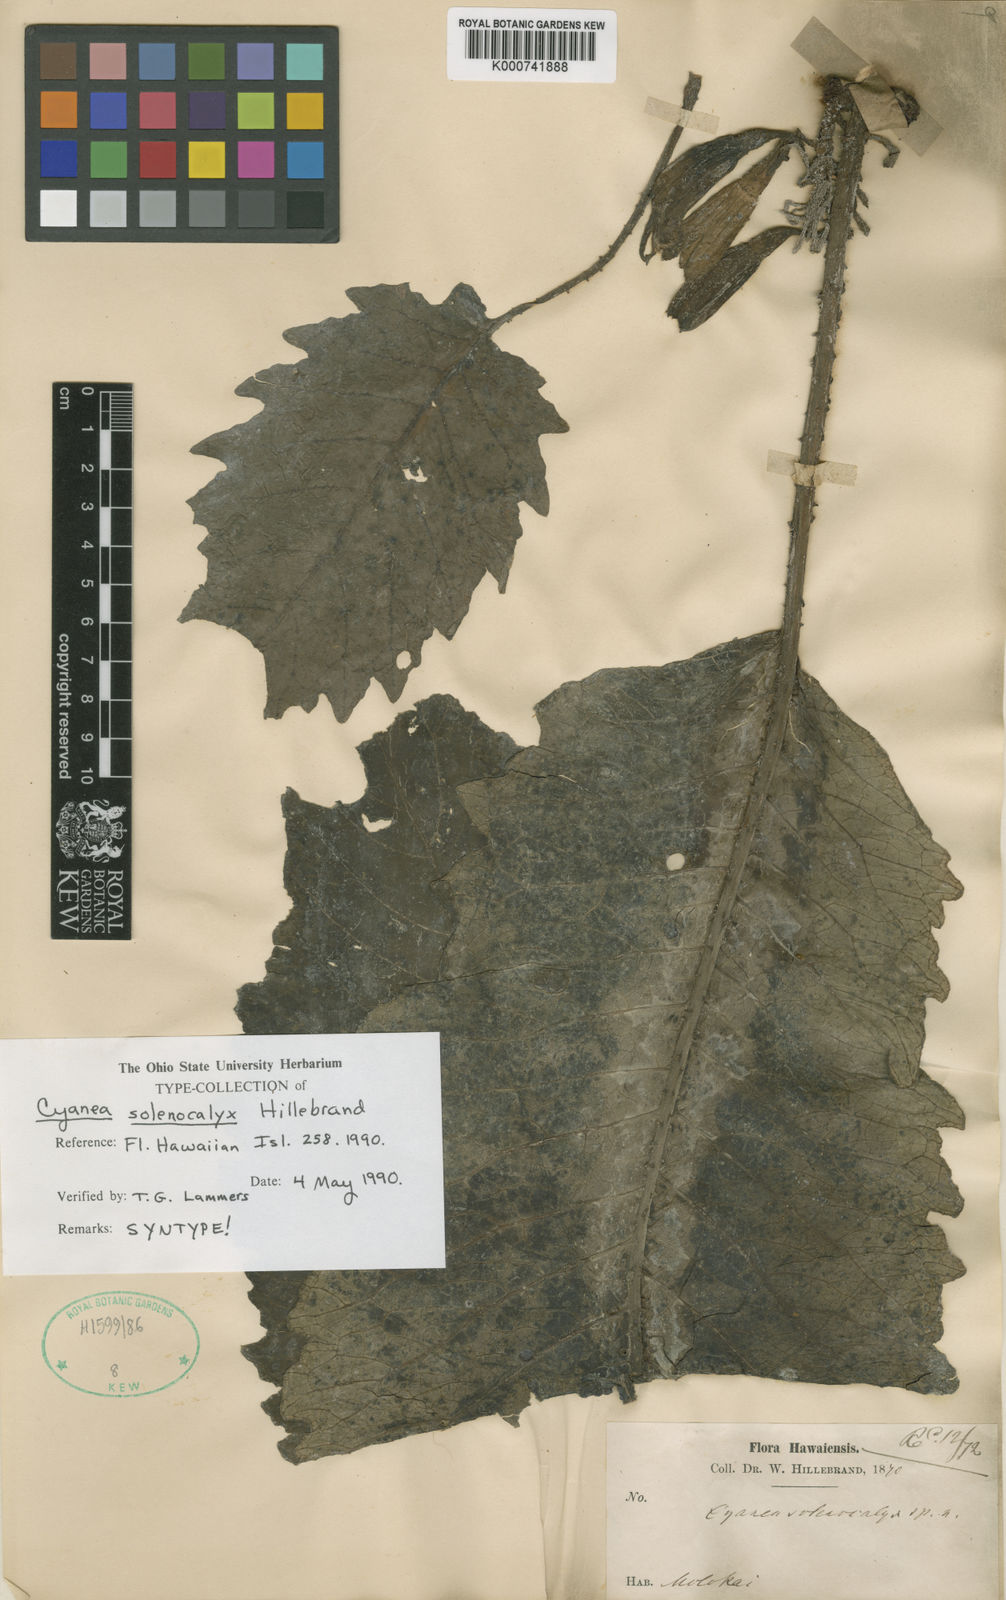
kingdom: Plantae
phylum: Tracheophyta
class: Magnoliopsida
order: Asterales
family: Campanulaceae
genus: Cyanea
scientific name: Cyanea solenocalyx
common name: Molokai cyanea
